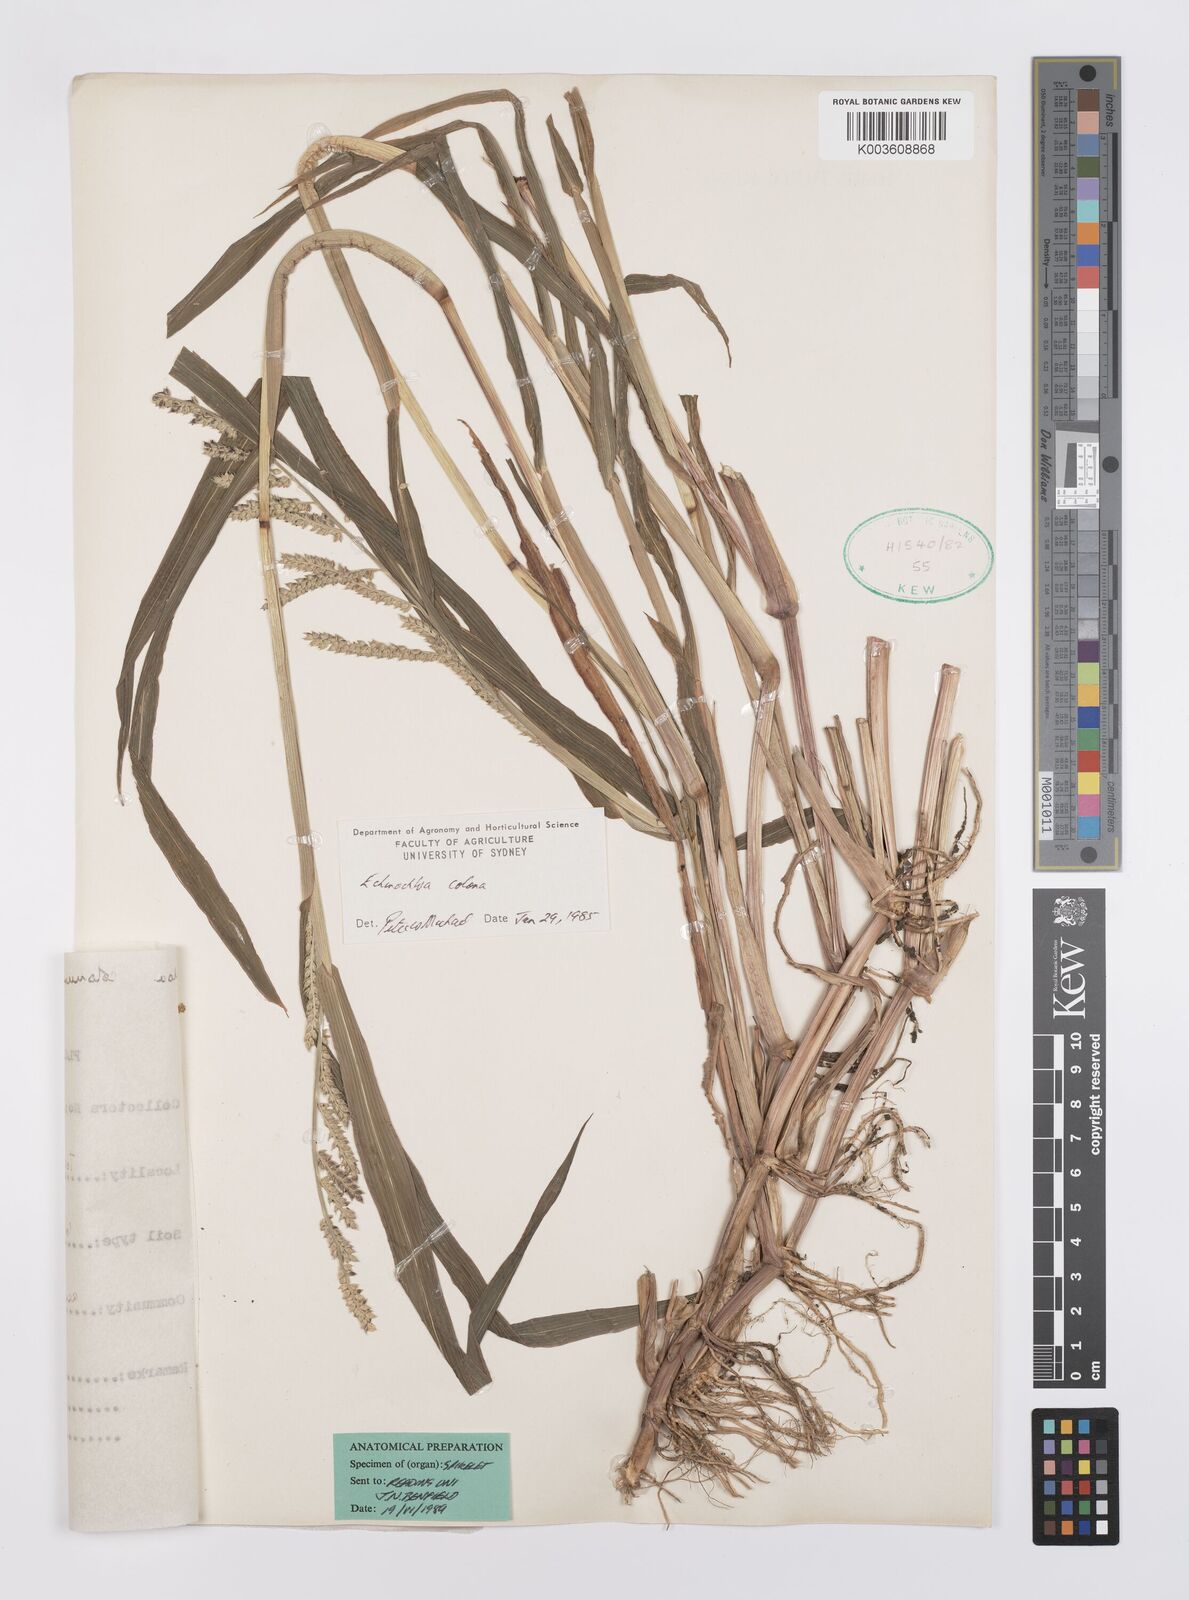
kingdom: Plantae
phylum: Tracheophyta
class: Liliopsida
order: Poales
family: Poaceae
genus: Echinochloa
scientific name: Echinochloa colonum
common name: Jungle rice
